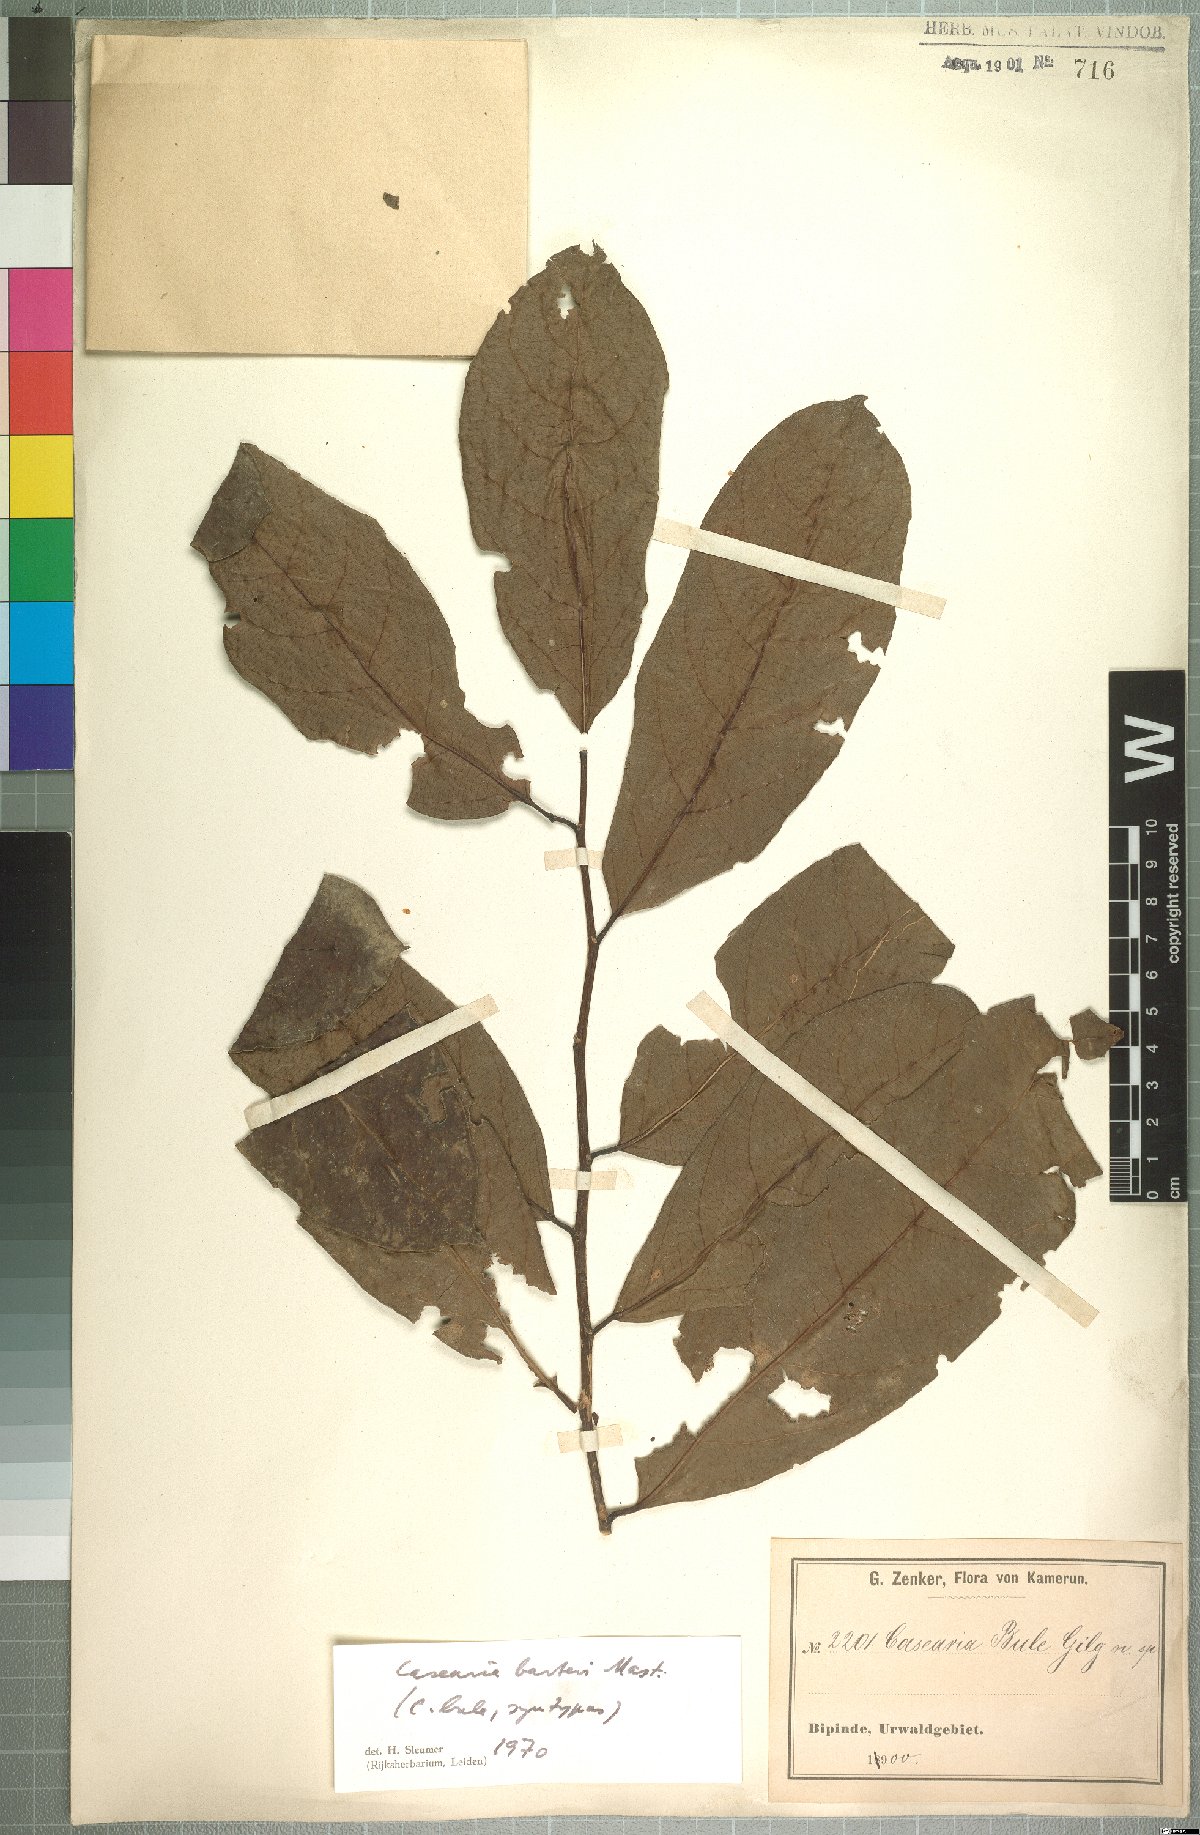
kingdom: Plantae
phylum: Tracheophyta
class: Magnoliopsida
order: Malpighiales
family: Salicaceae
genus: Casearia
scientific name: Casearia barteri
